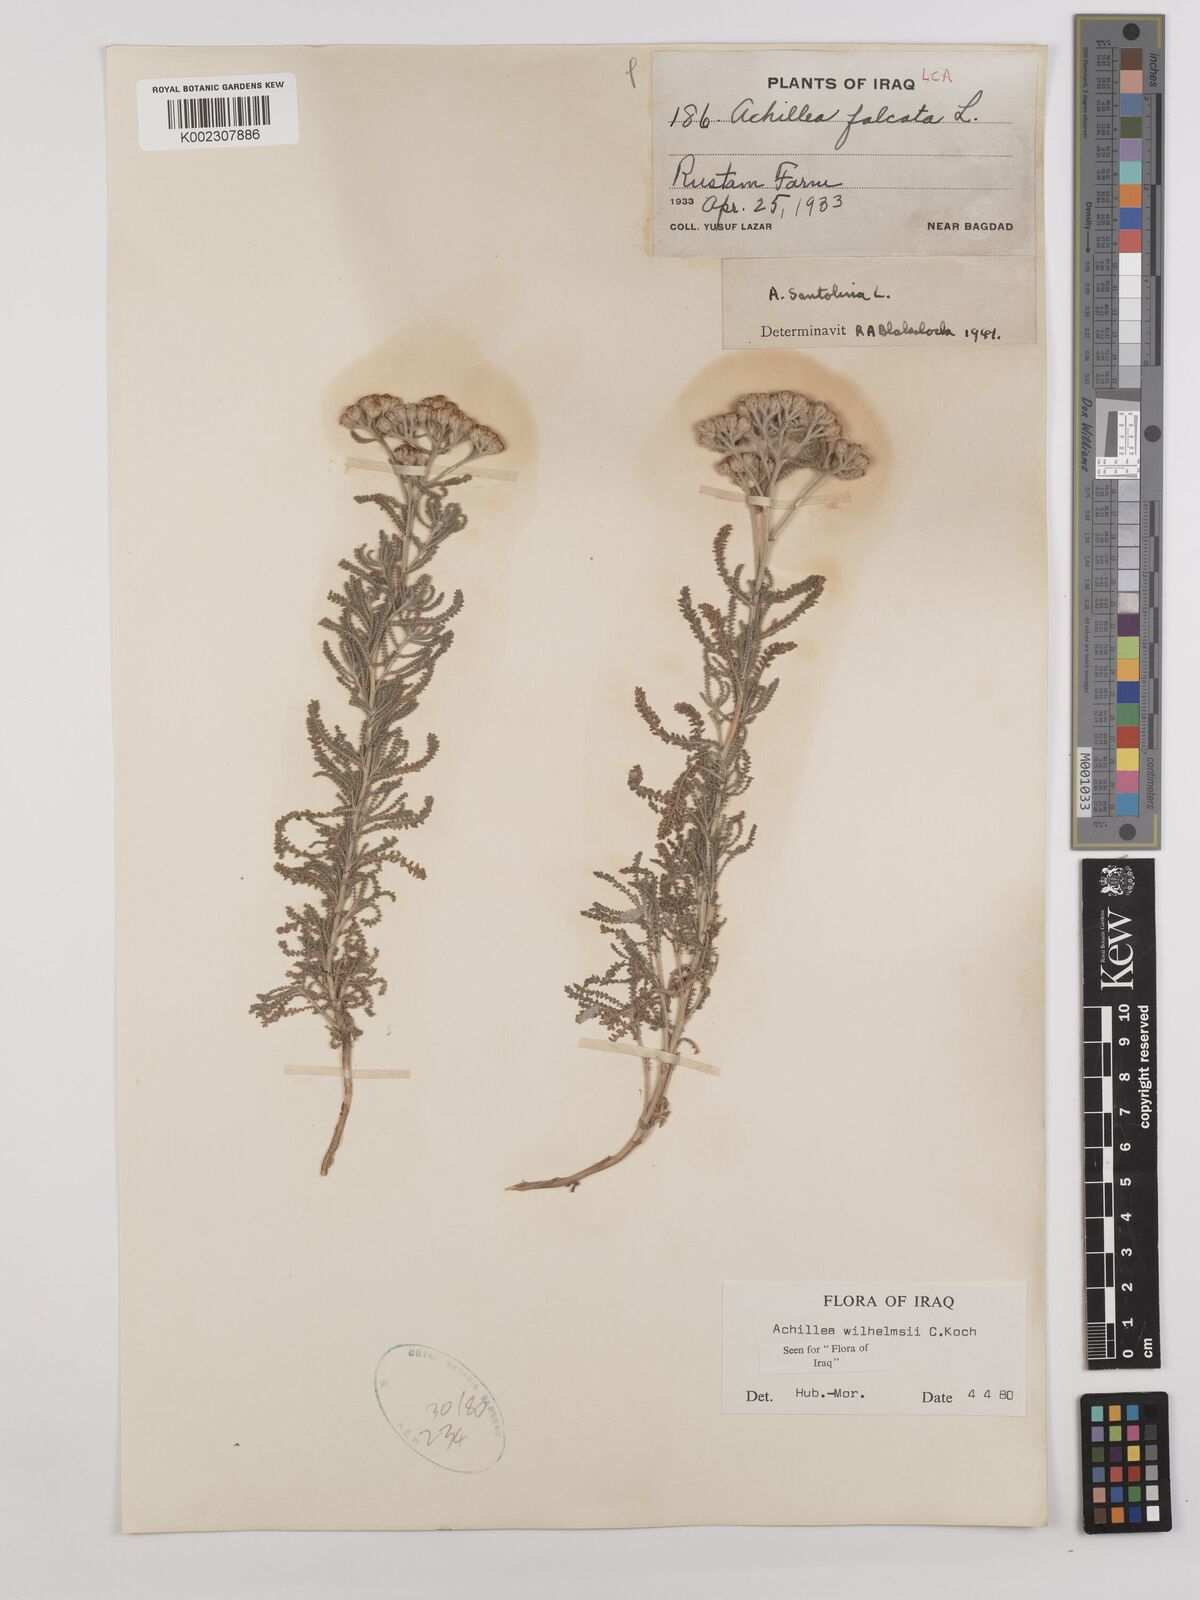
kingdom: Plantae
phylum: Tracheophyta
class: Magnoliopsida
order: Asterales
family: Asteraceae
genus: Achillea
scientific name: Achillea wilhelmsii
